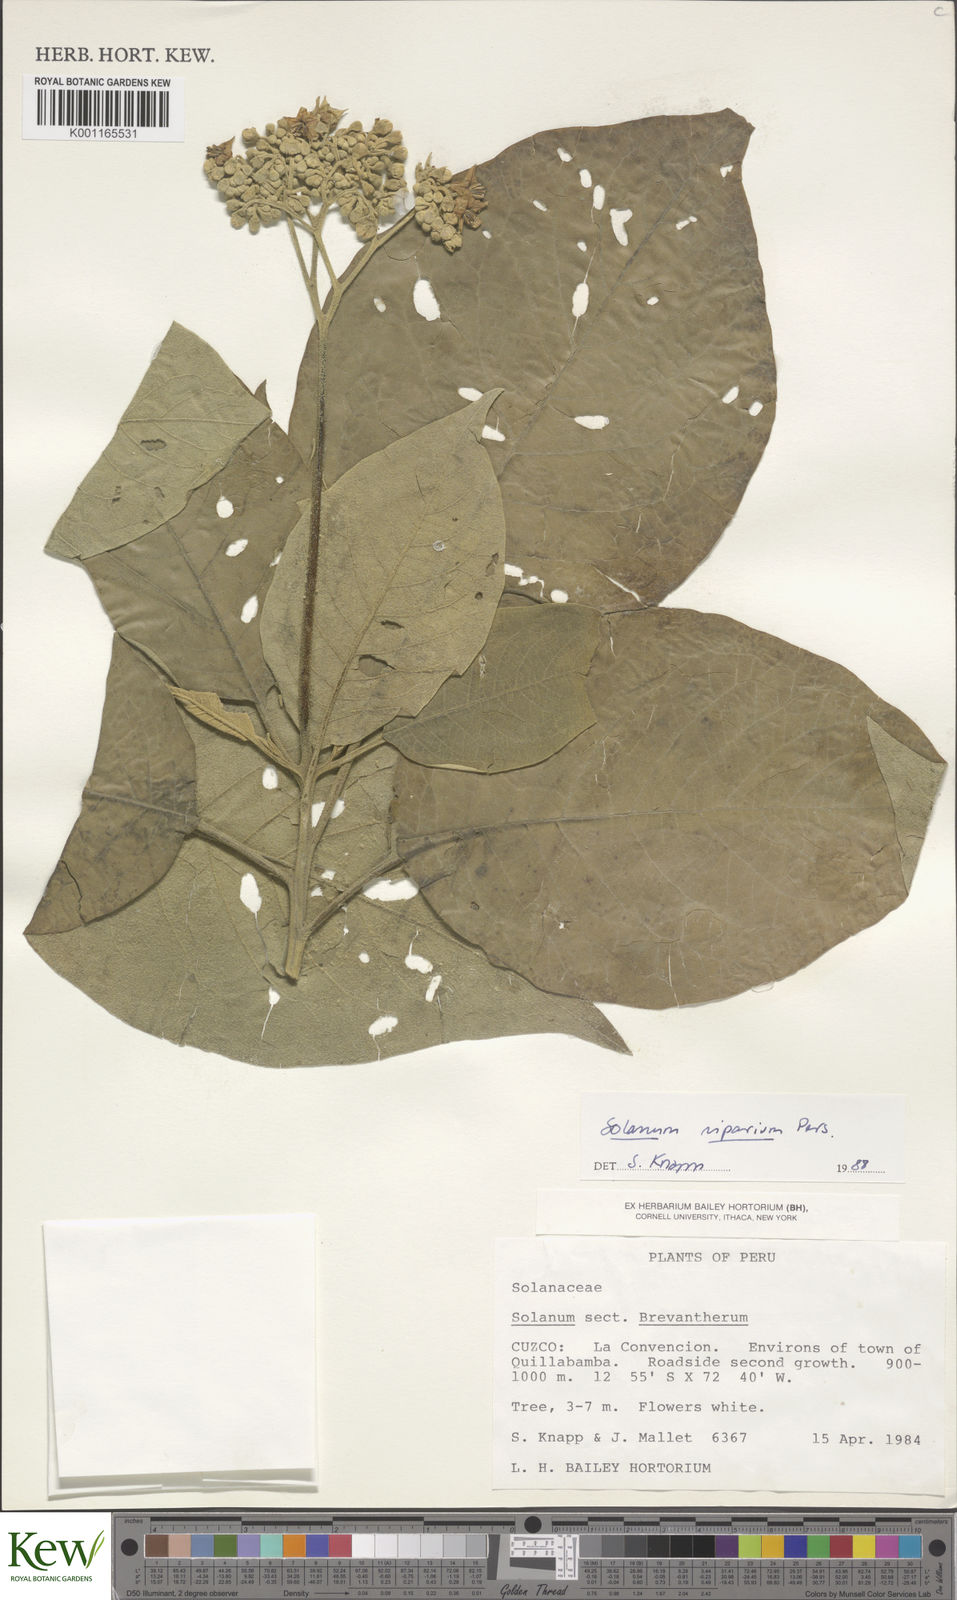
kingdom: Plantae
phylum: Tracheophyta
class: Magnoliopsida
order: Solanales
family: Solanaceae
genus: Solanum
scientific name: Solanum riparium
